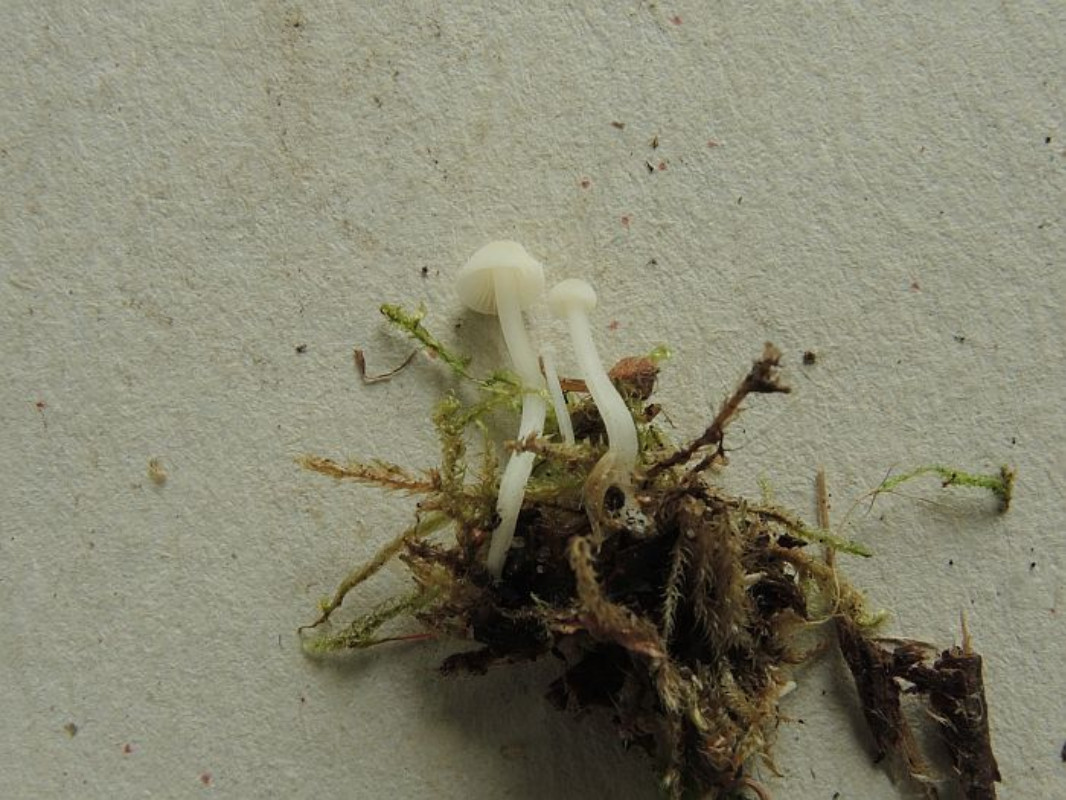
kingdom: Fungi
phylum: Basidiomycota
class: Agaricomycetes
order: Agaricales
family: Mycenaceae
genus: Hemimycena
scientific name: Hemimycena cucullata
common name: tætbladet huesvamp
